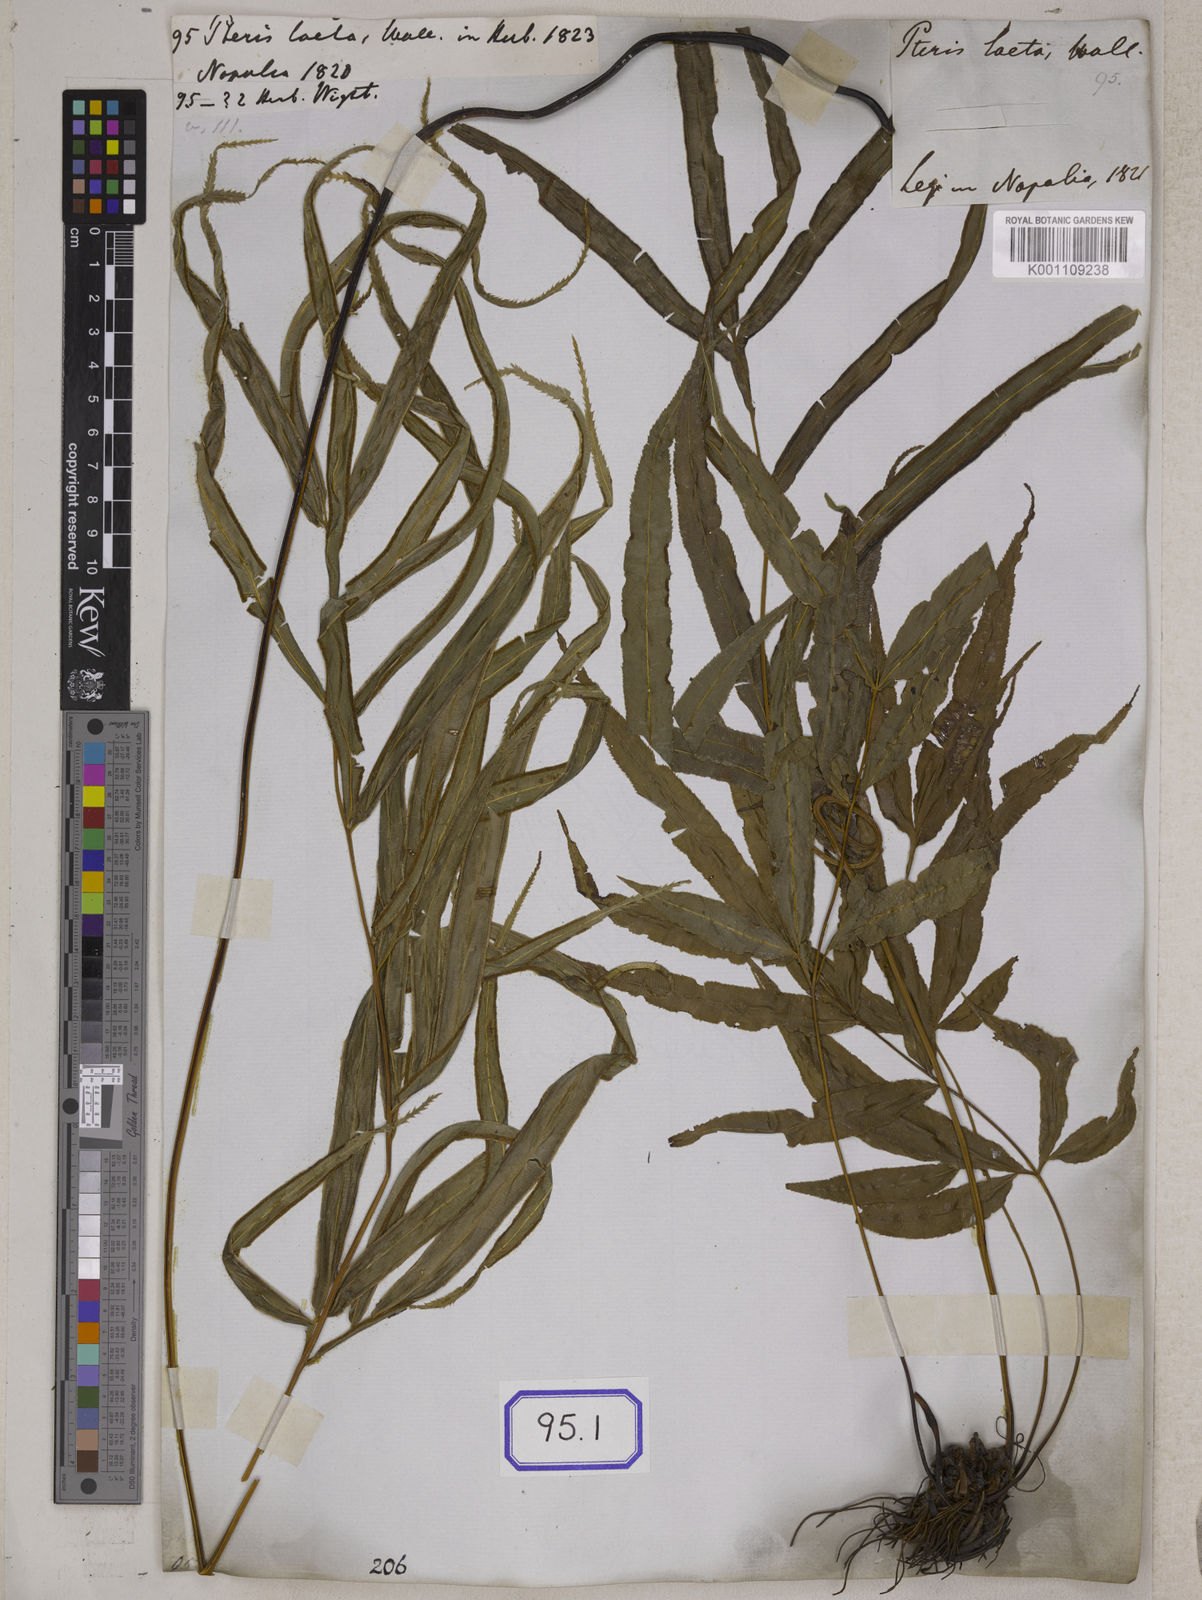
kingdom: Plantae
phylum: Tracheophyta
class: Polypodiopsida
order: Polypodiales
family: Pteridaceae
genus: Pteris
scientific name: Pteris cretica
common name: Ribbon fern
